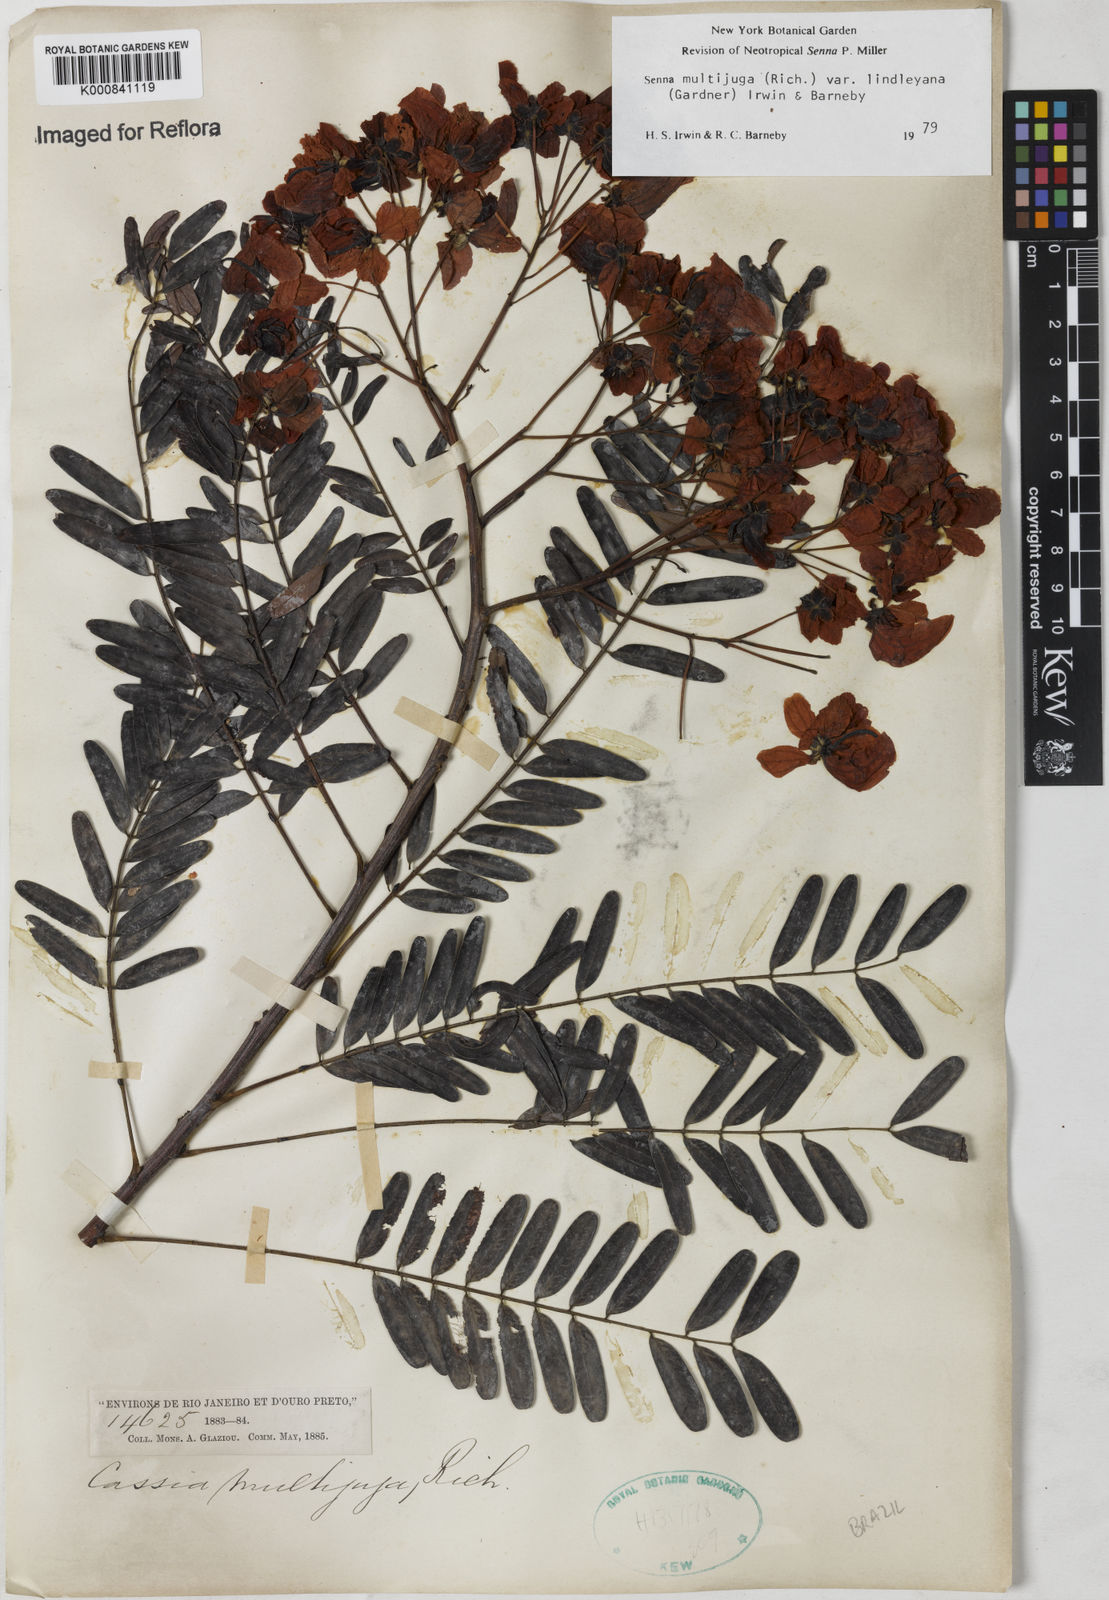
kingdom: Plantae
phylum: Tracheophyta
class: Magnoliopsida
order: Fabales
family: Fabaceae
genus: Senna
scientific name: Senna multijuga
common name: False sicklepod
